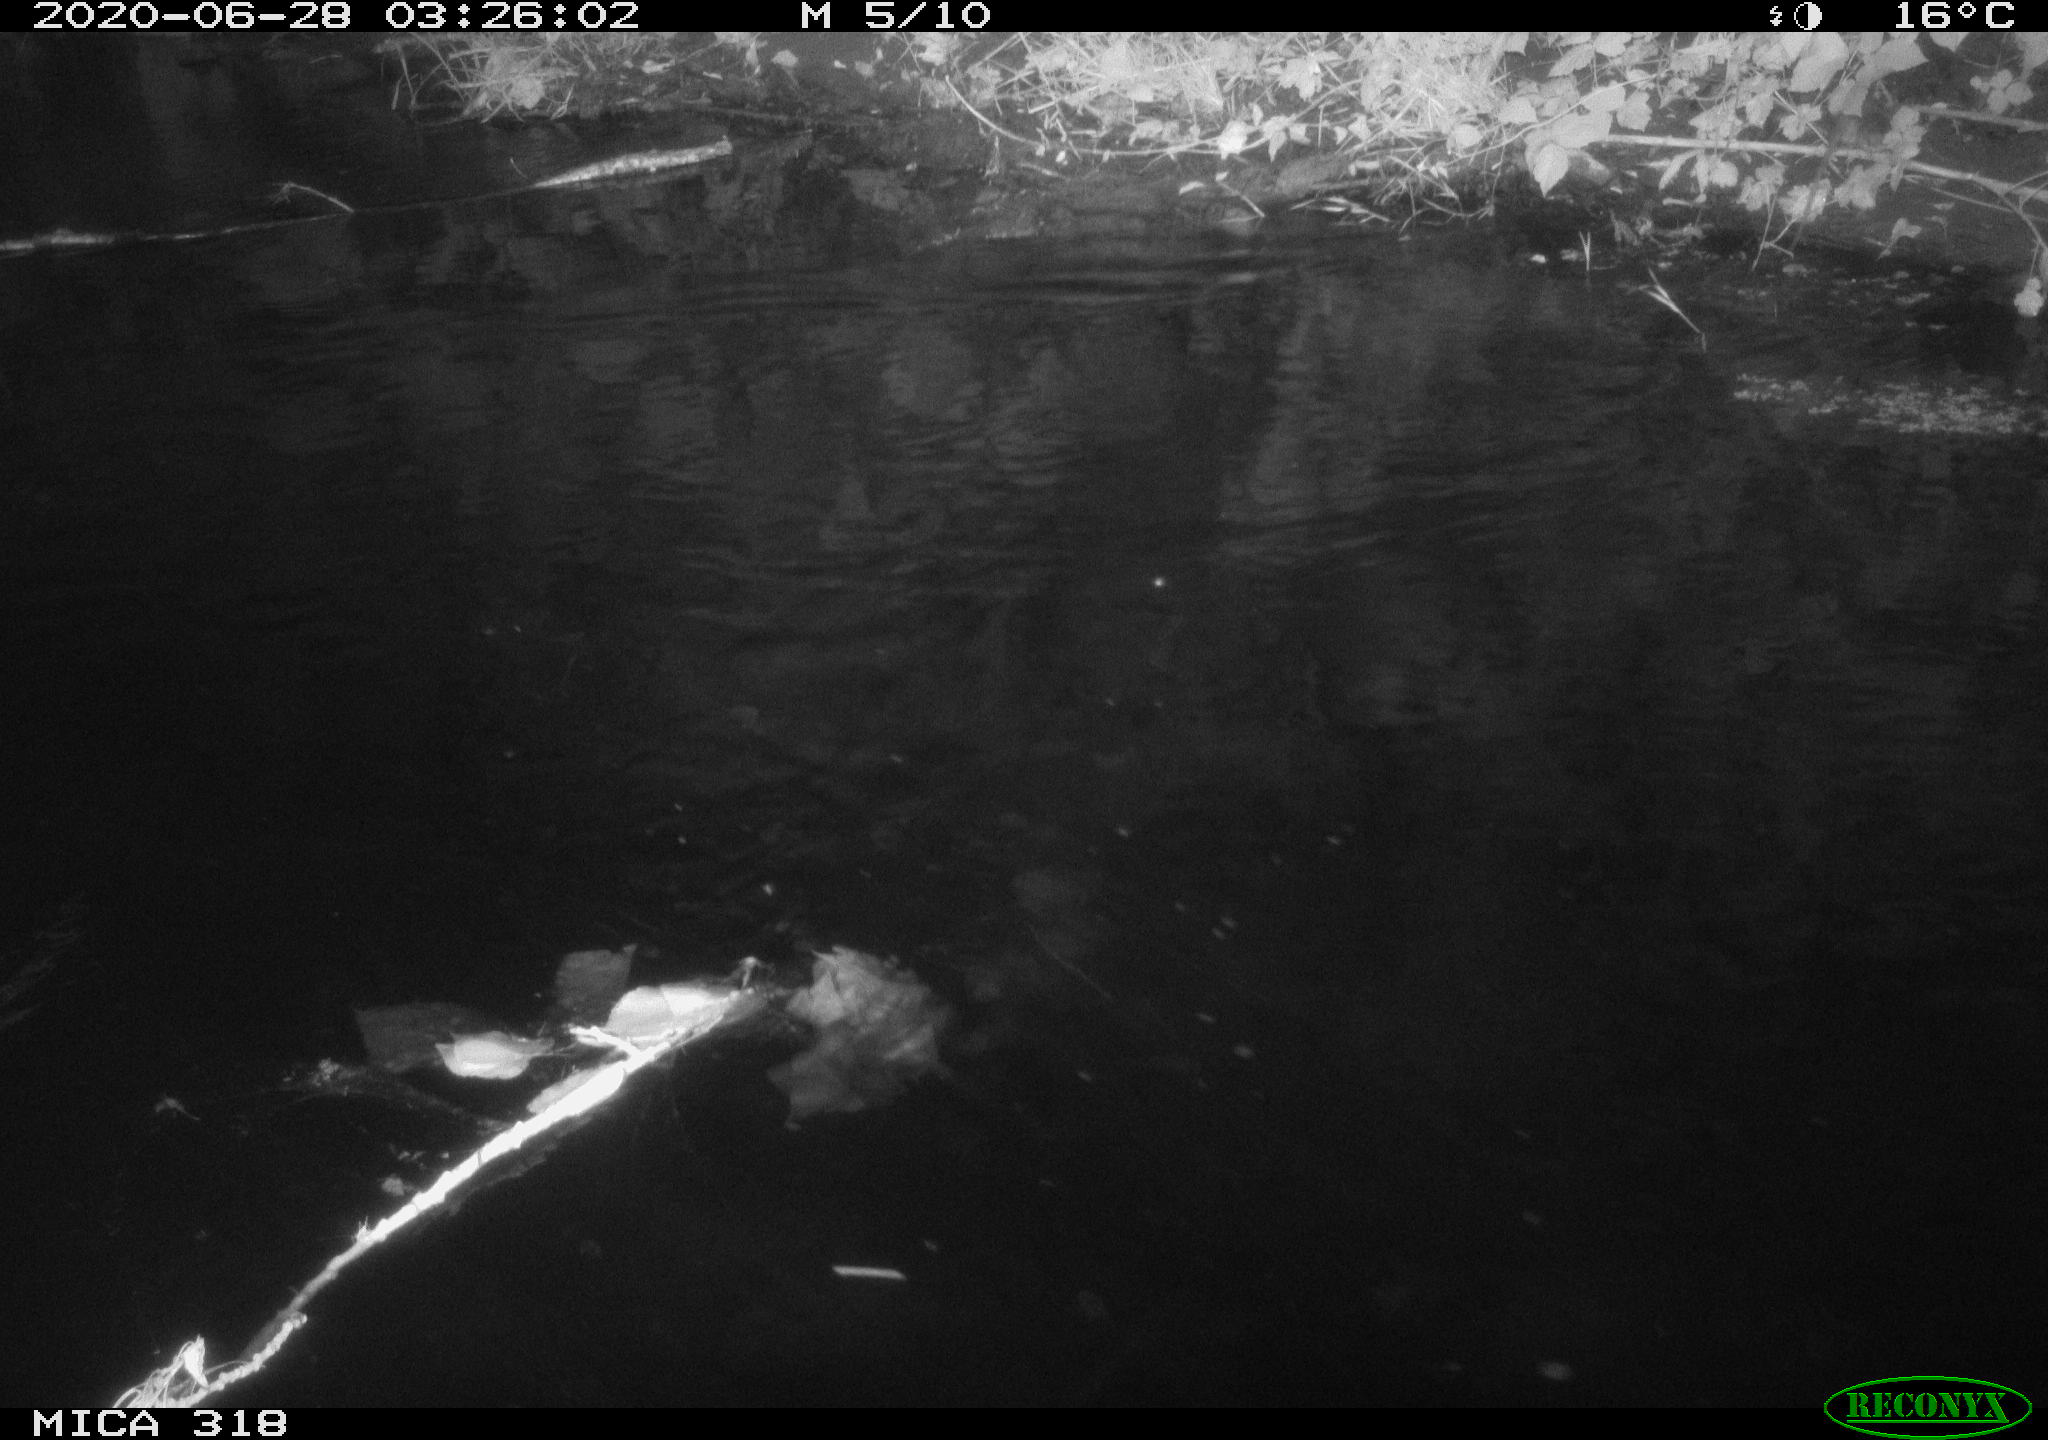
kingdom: Animalia
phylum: Chordata
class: Mammalia
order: Rodentia
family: Muridae
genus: Rattus
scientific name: Rattus norvegicus
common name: Brown rat
